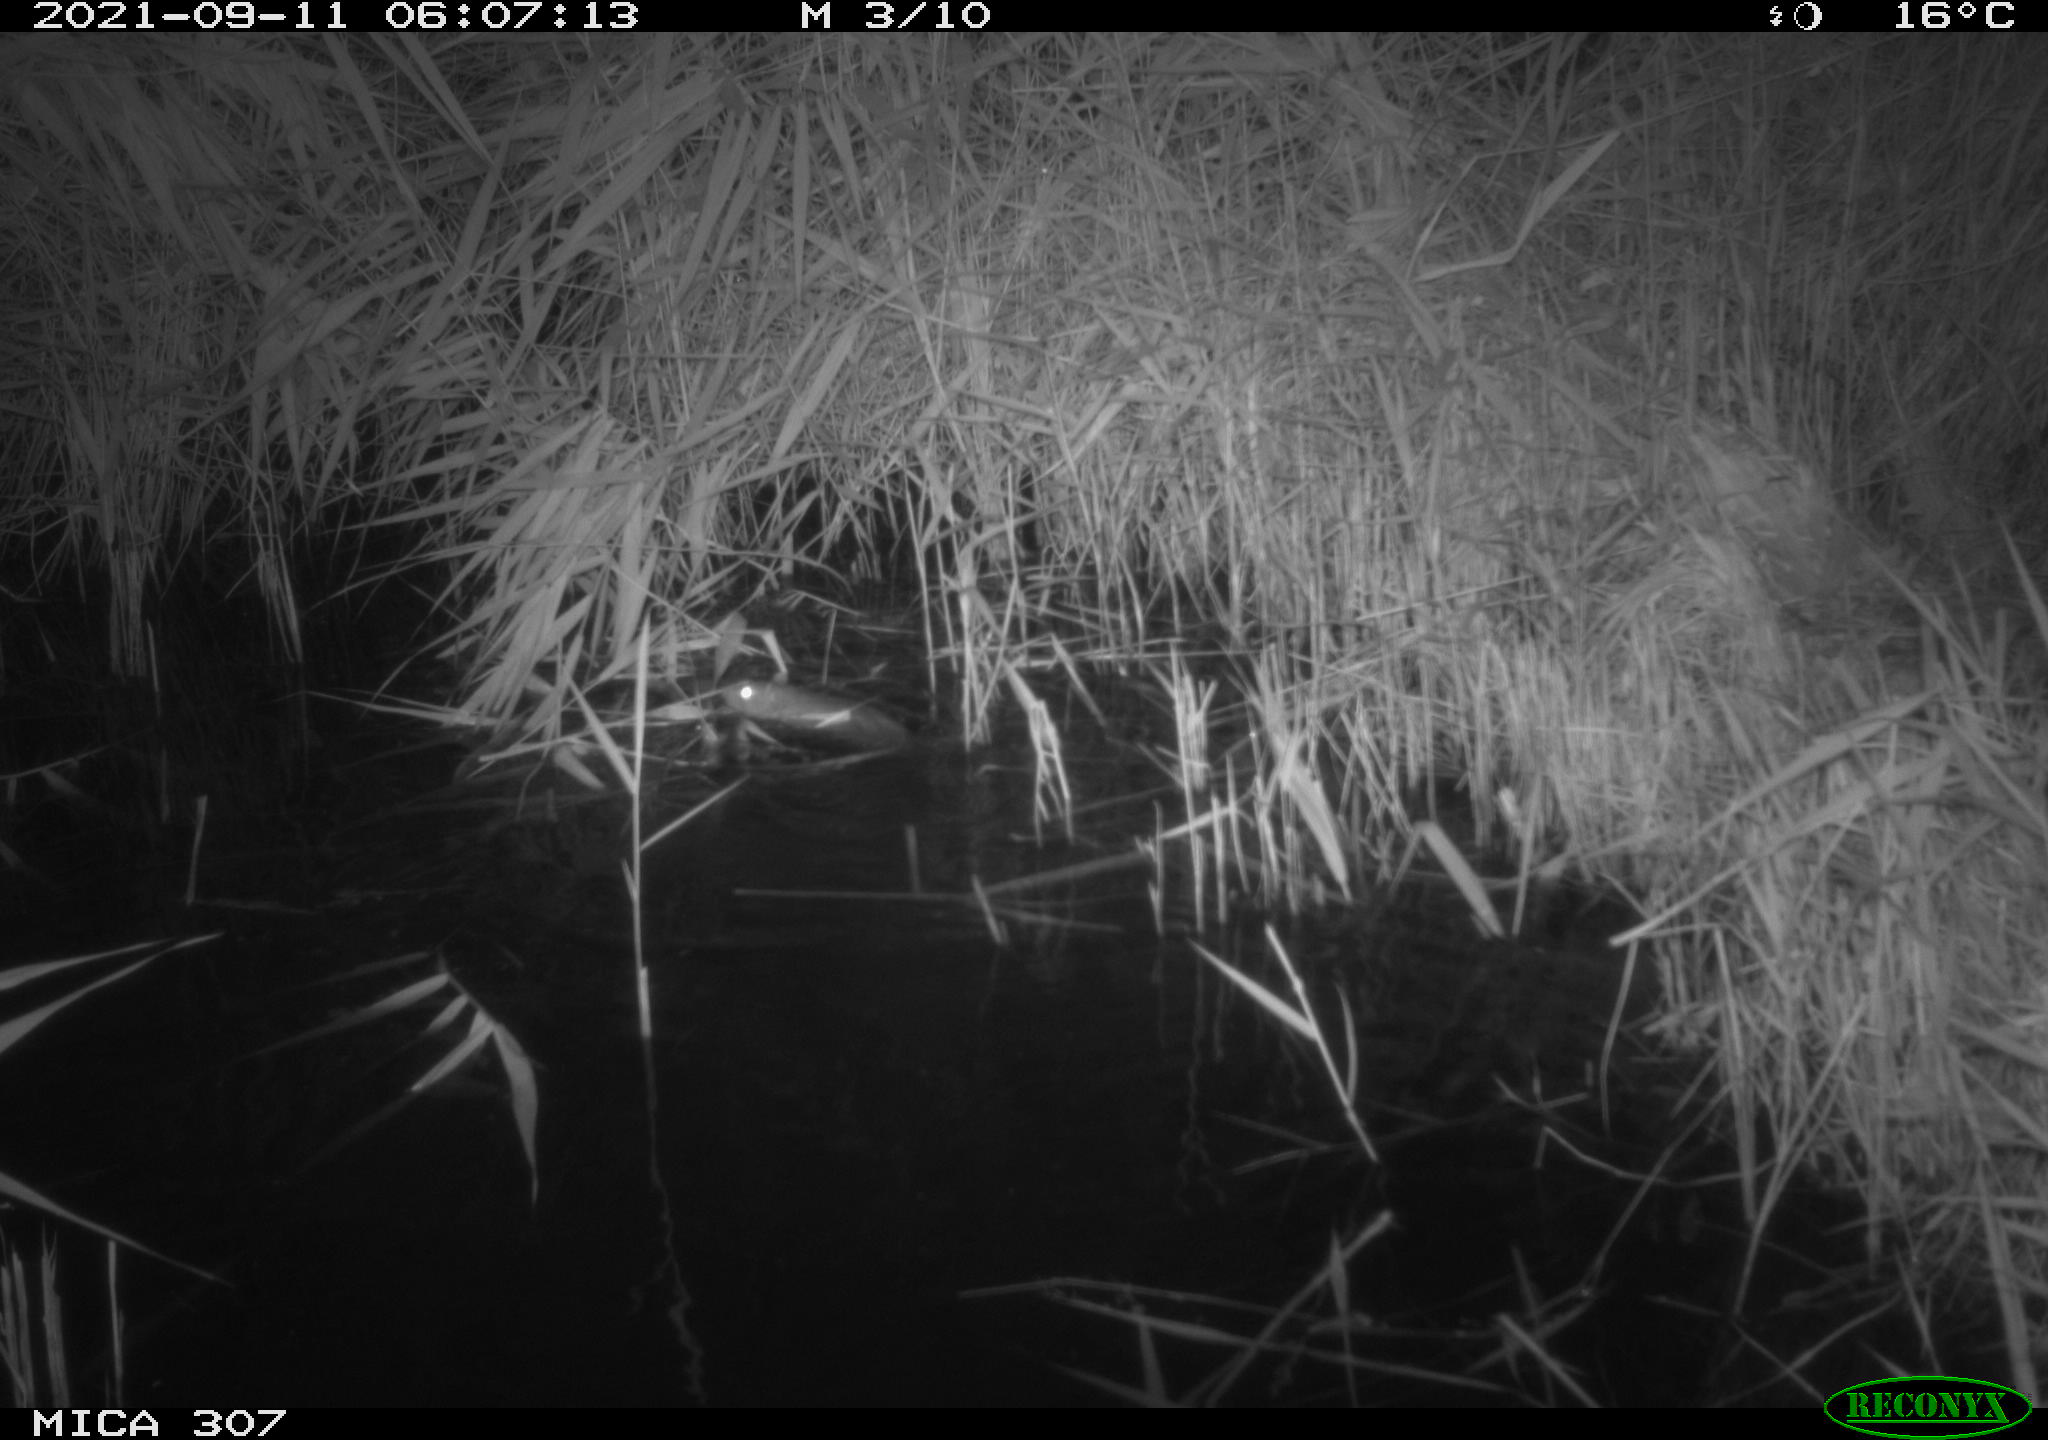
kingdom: Animalia
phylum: Chordata
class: Mammalia
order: Rodentia
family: Muridae
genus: Rattus
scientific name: Rattus norvegicus
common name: Brown rat
